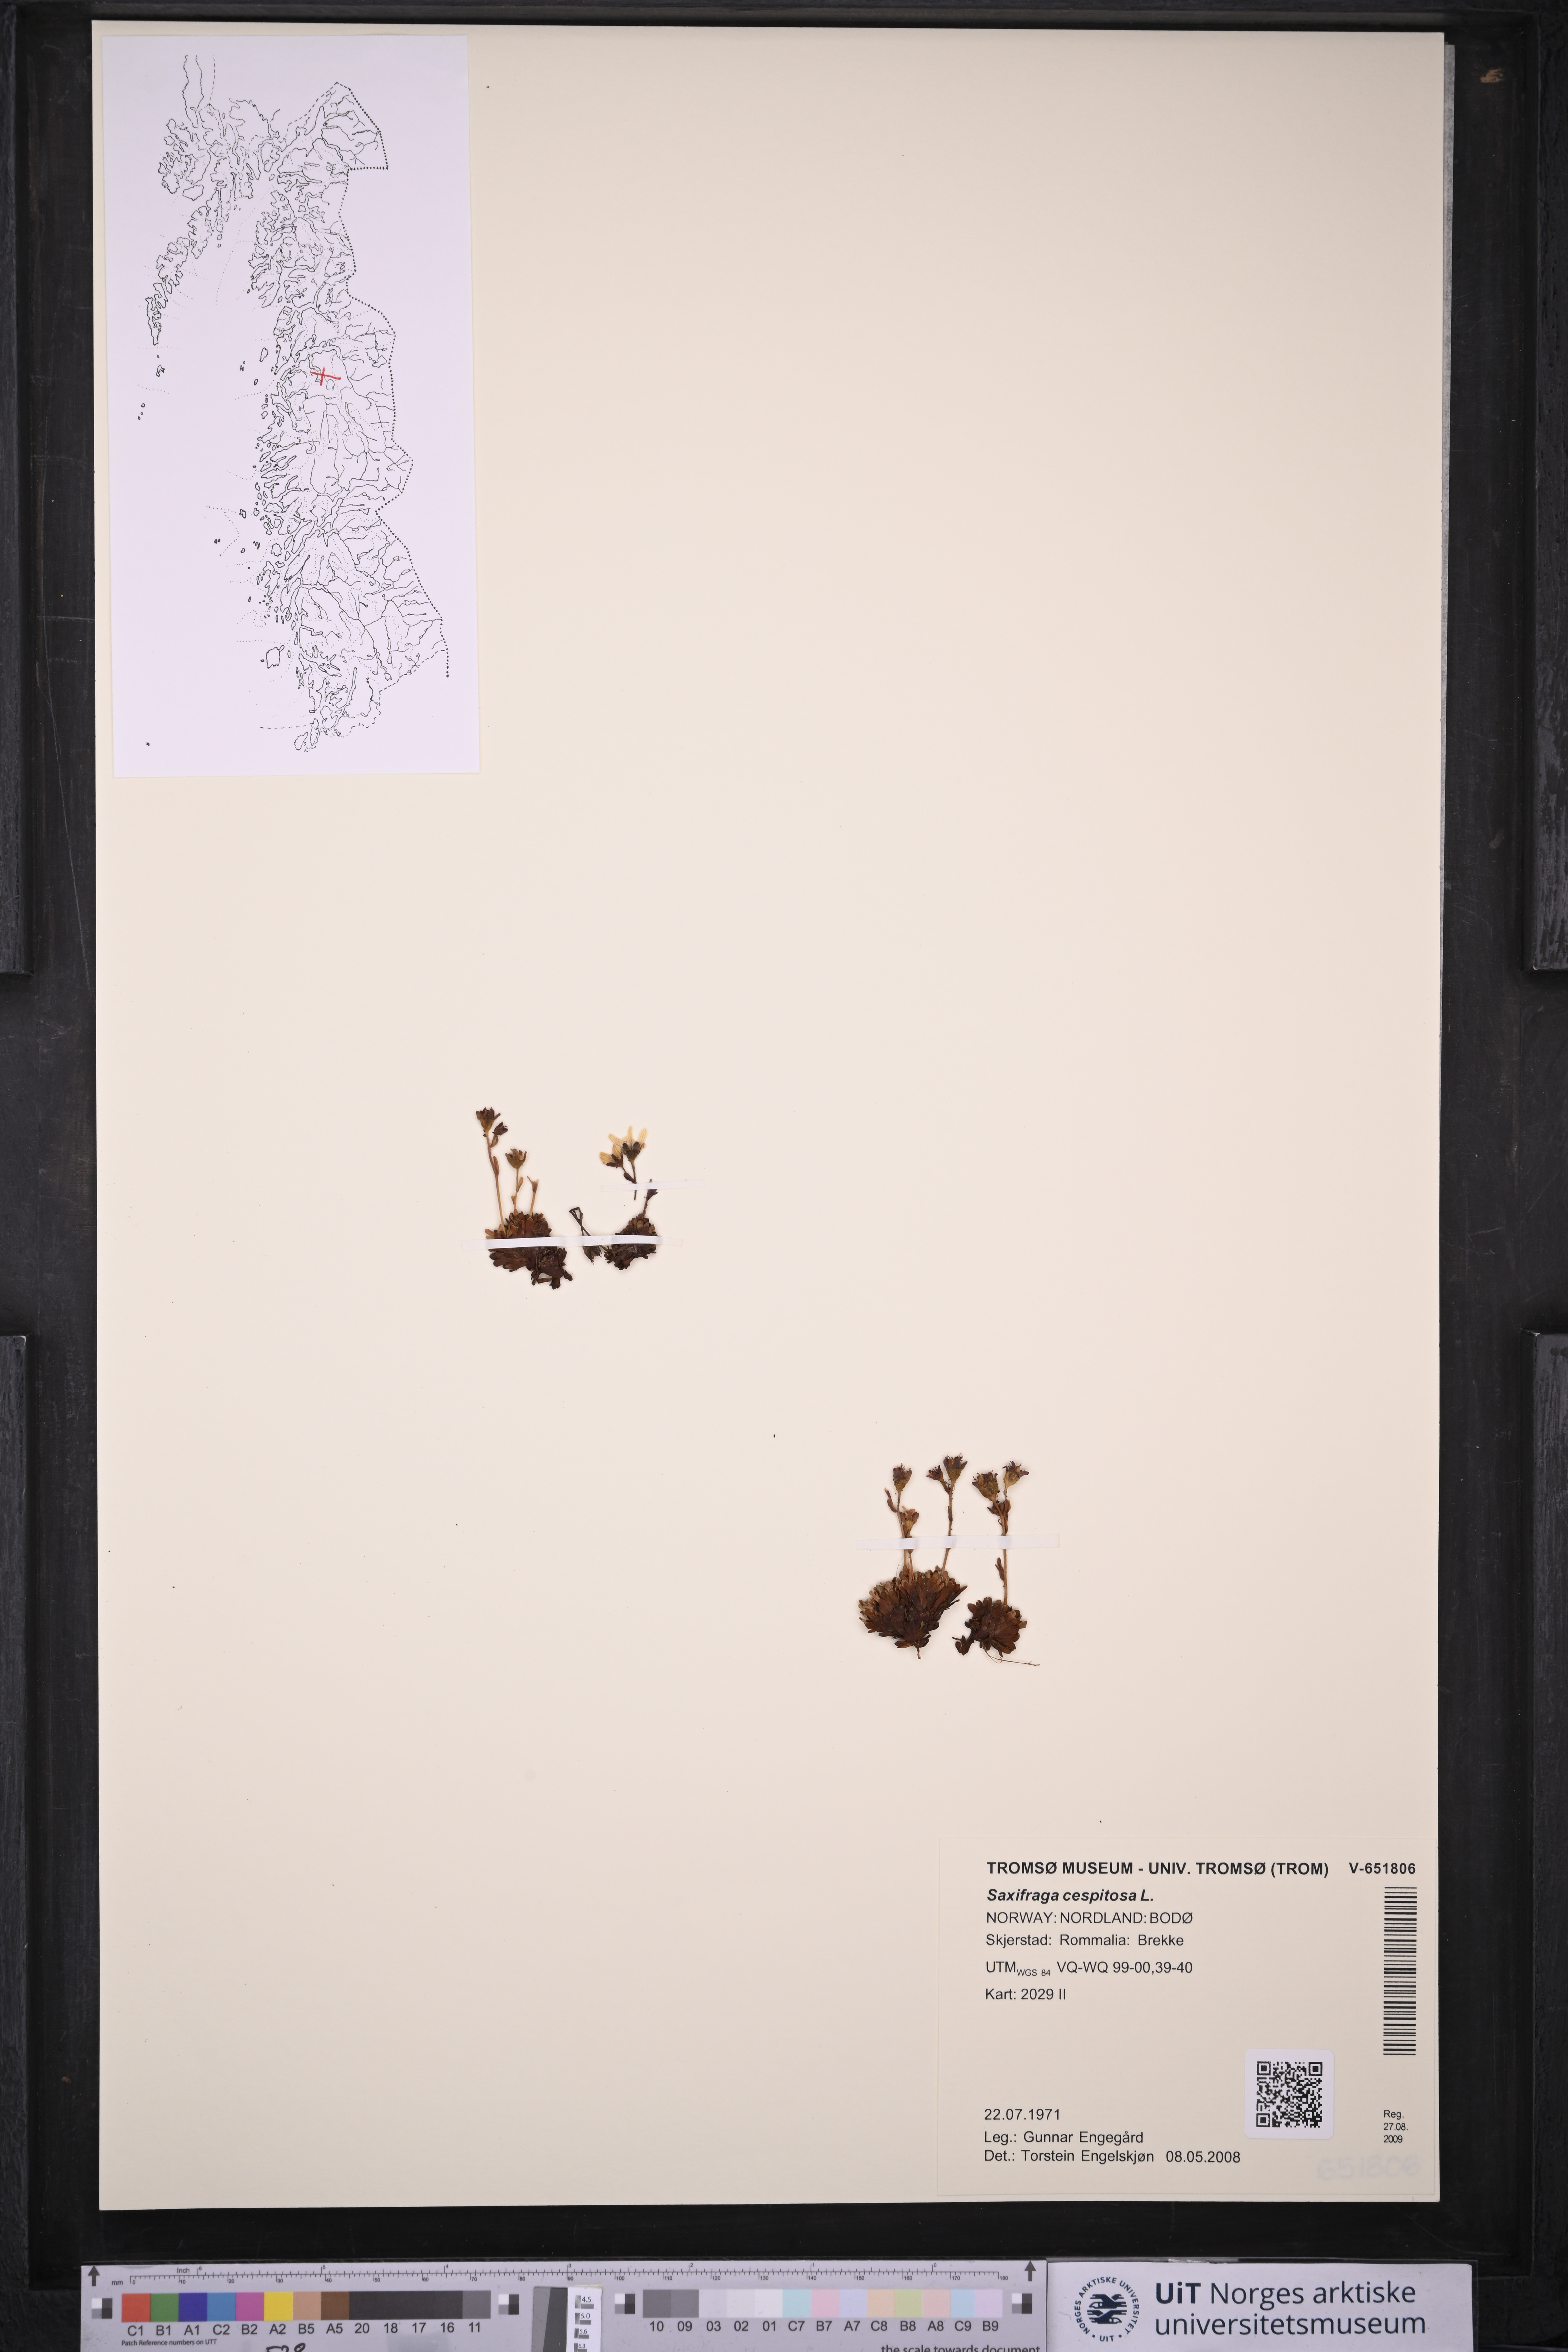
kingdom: Plantae
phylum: Tracheophyta
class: Magnoliopsida
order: Saxifragales
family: Saxifragaceae
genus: Saxifraga
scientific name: Saxifraga cespitosa
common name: Tufted saxifrage
